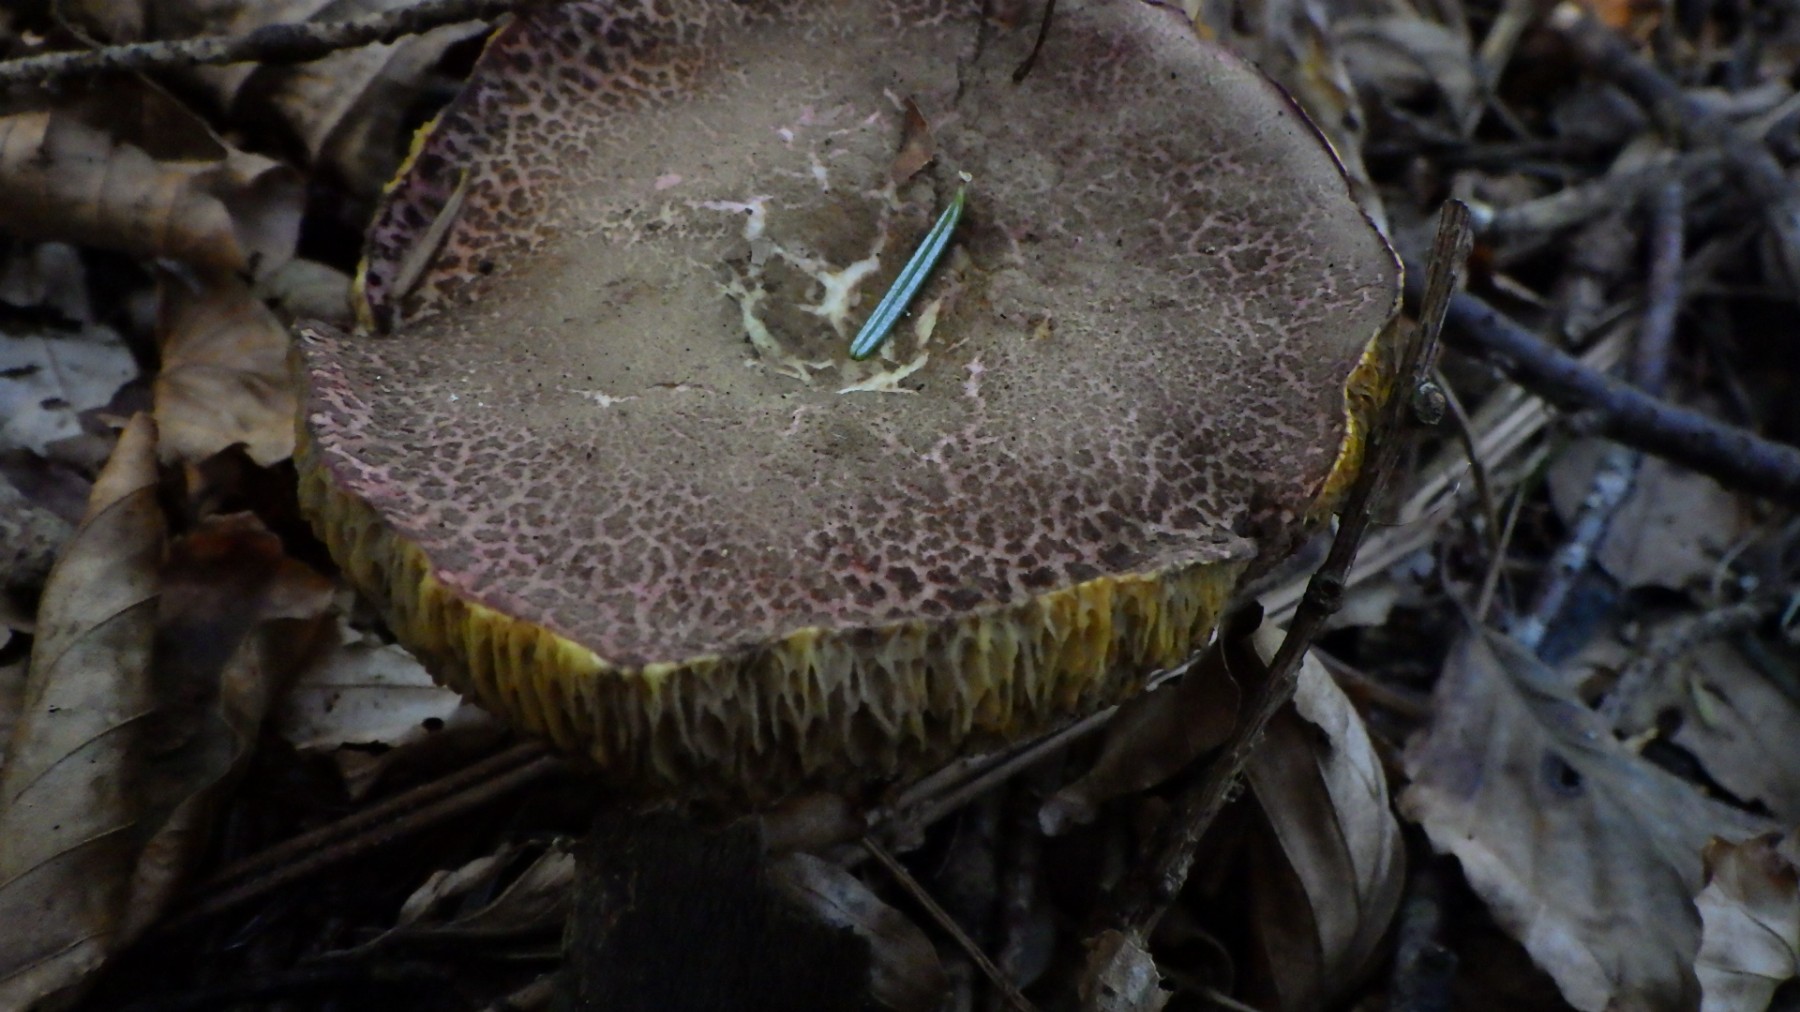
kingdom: Fungi
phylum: Basidiomycota
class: Agaricomycetes
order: Boletales
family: Boletaceae
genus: Xerocomellus
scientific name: Xerocomellus
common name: dværgrørhat
